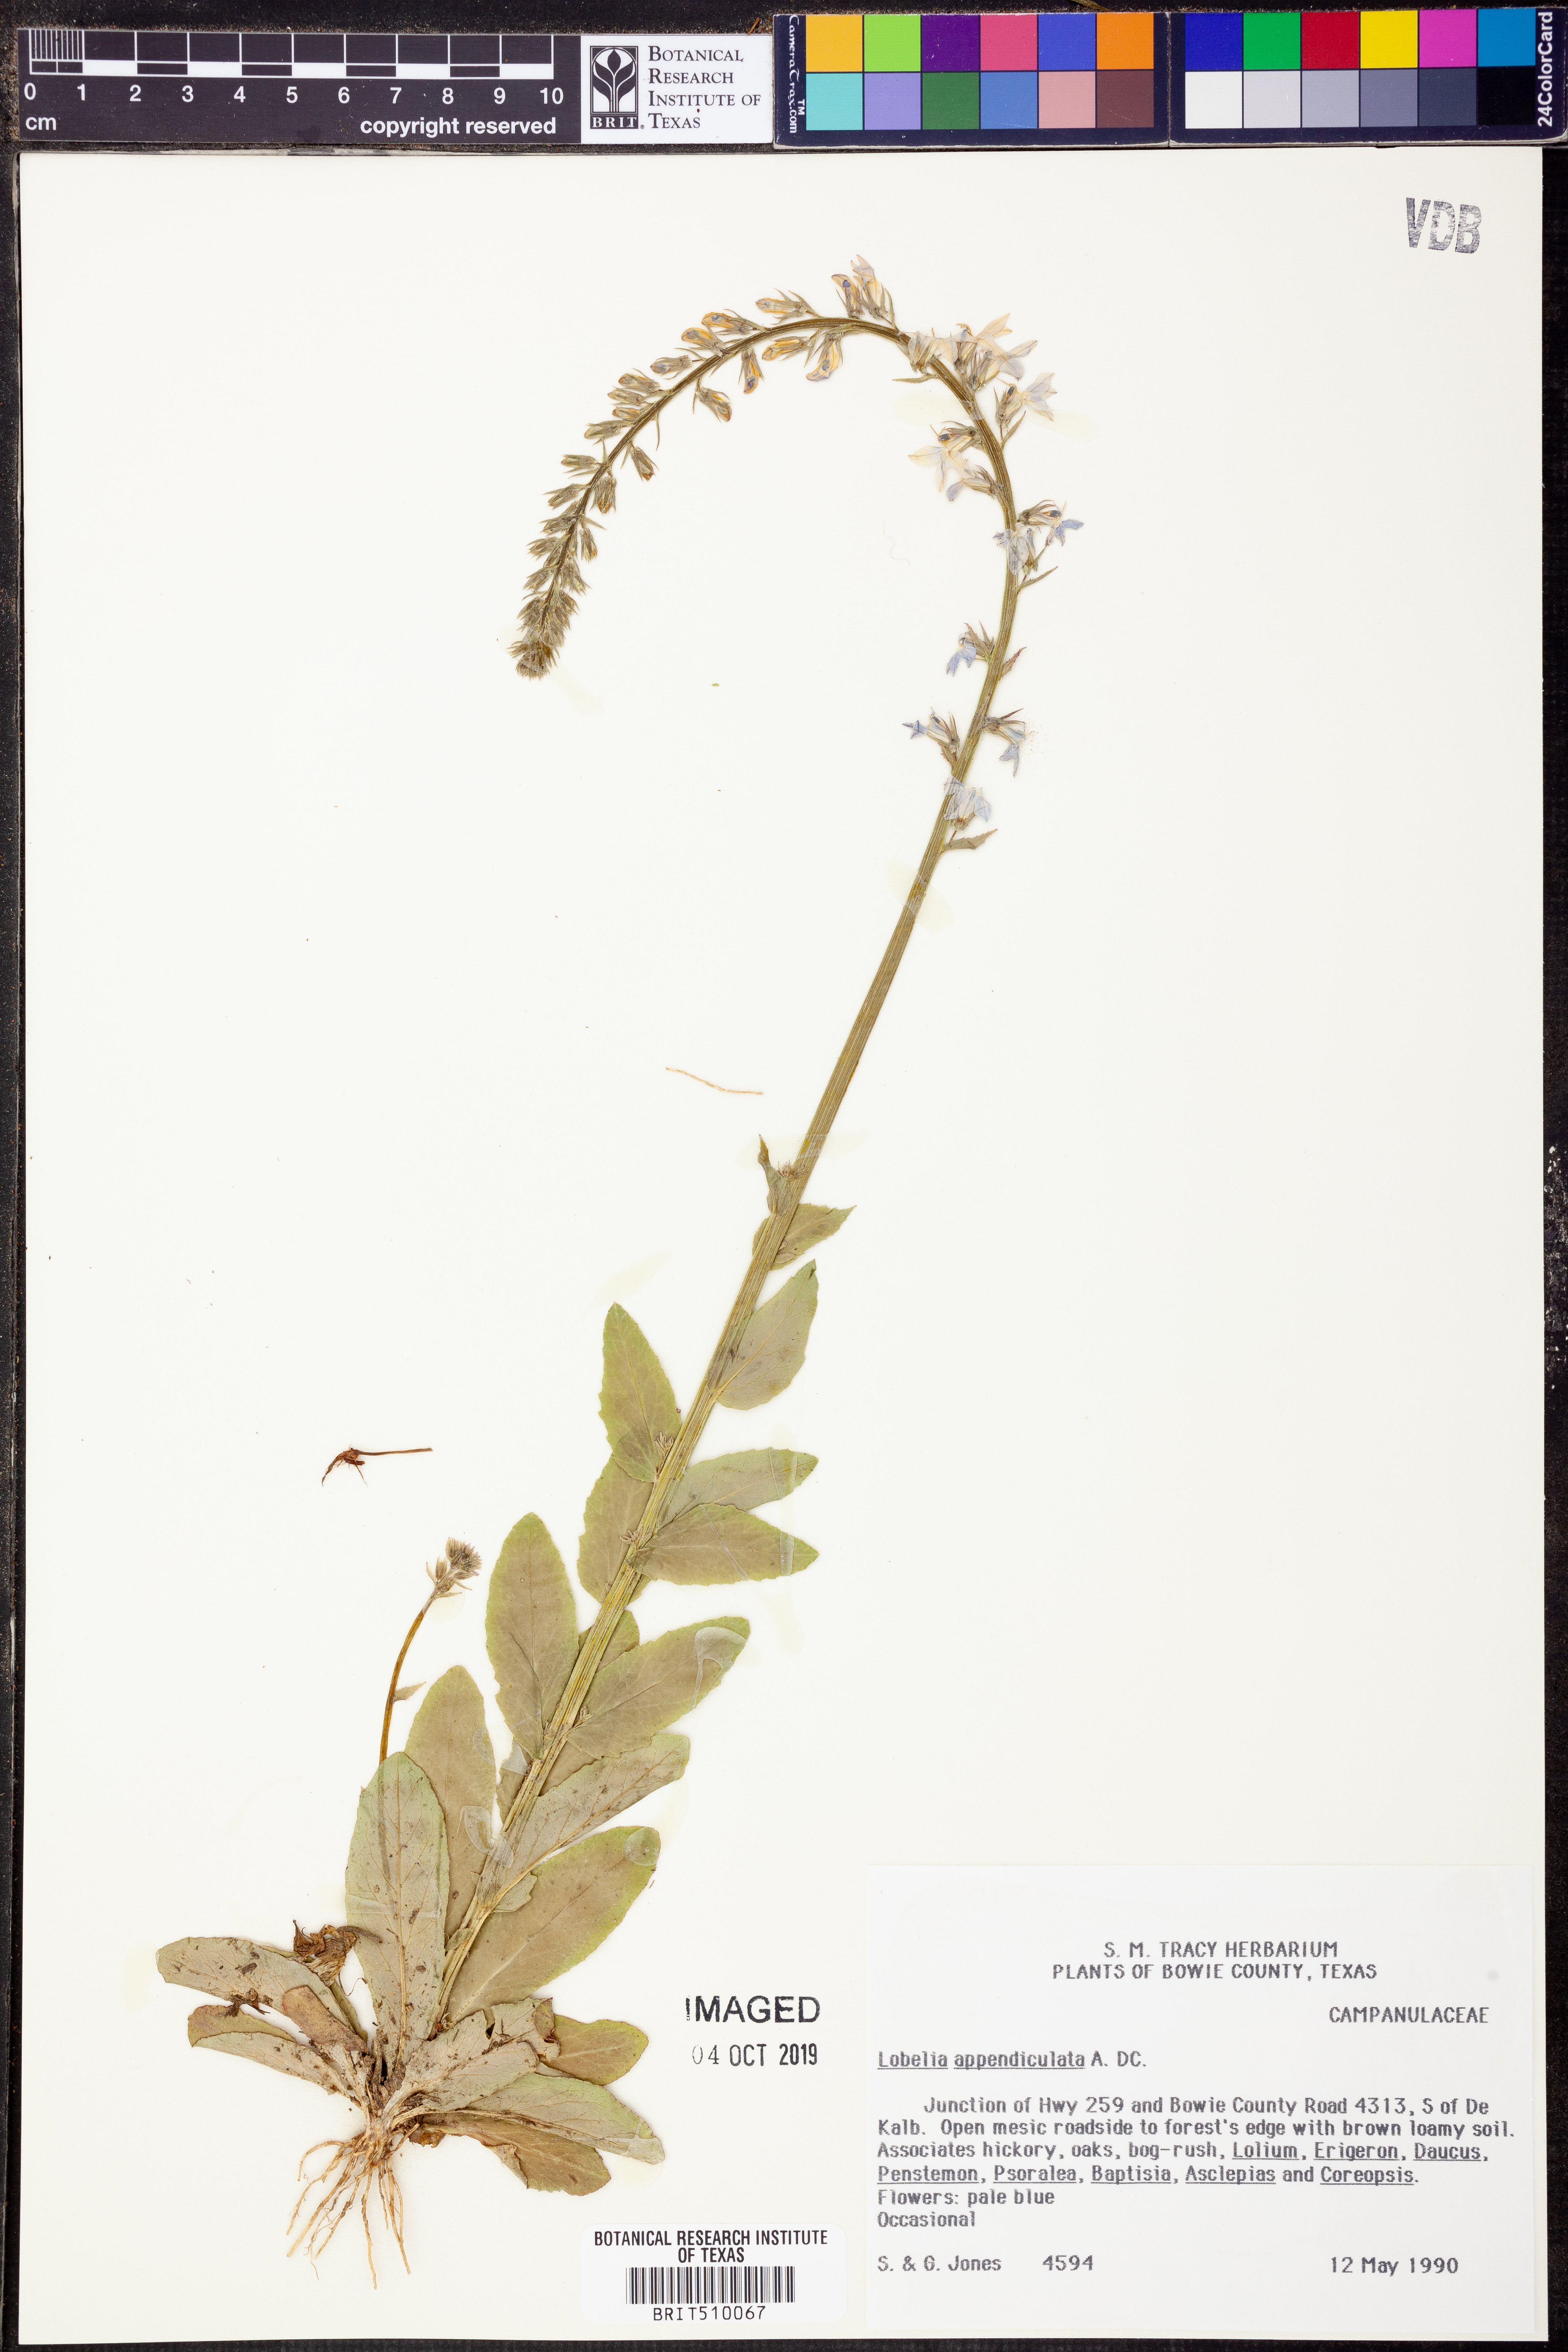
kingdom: Plantae
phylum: Tracheophyta
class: Magnoliopsida
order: Asterales
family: Campanulaceae
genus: Lobelia
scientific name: Lobelia appendiculata
